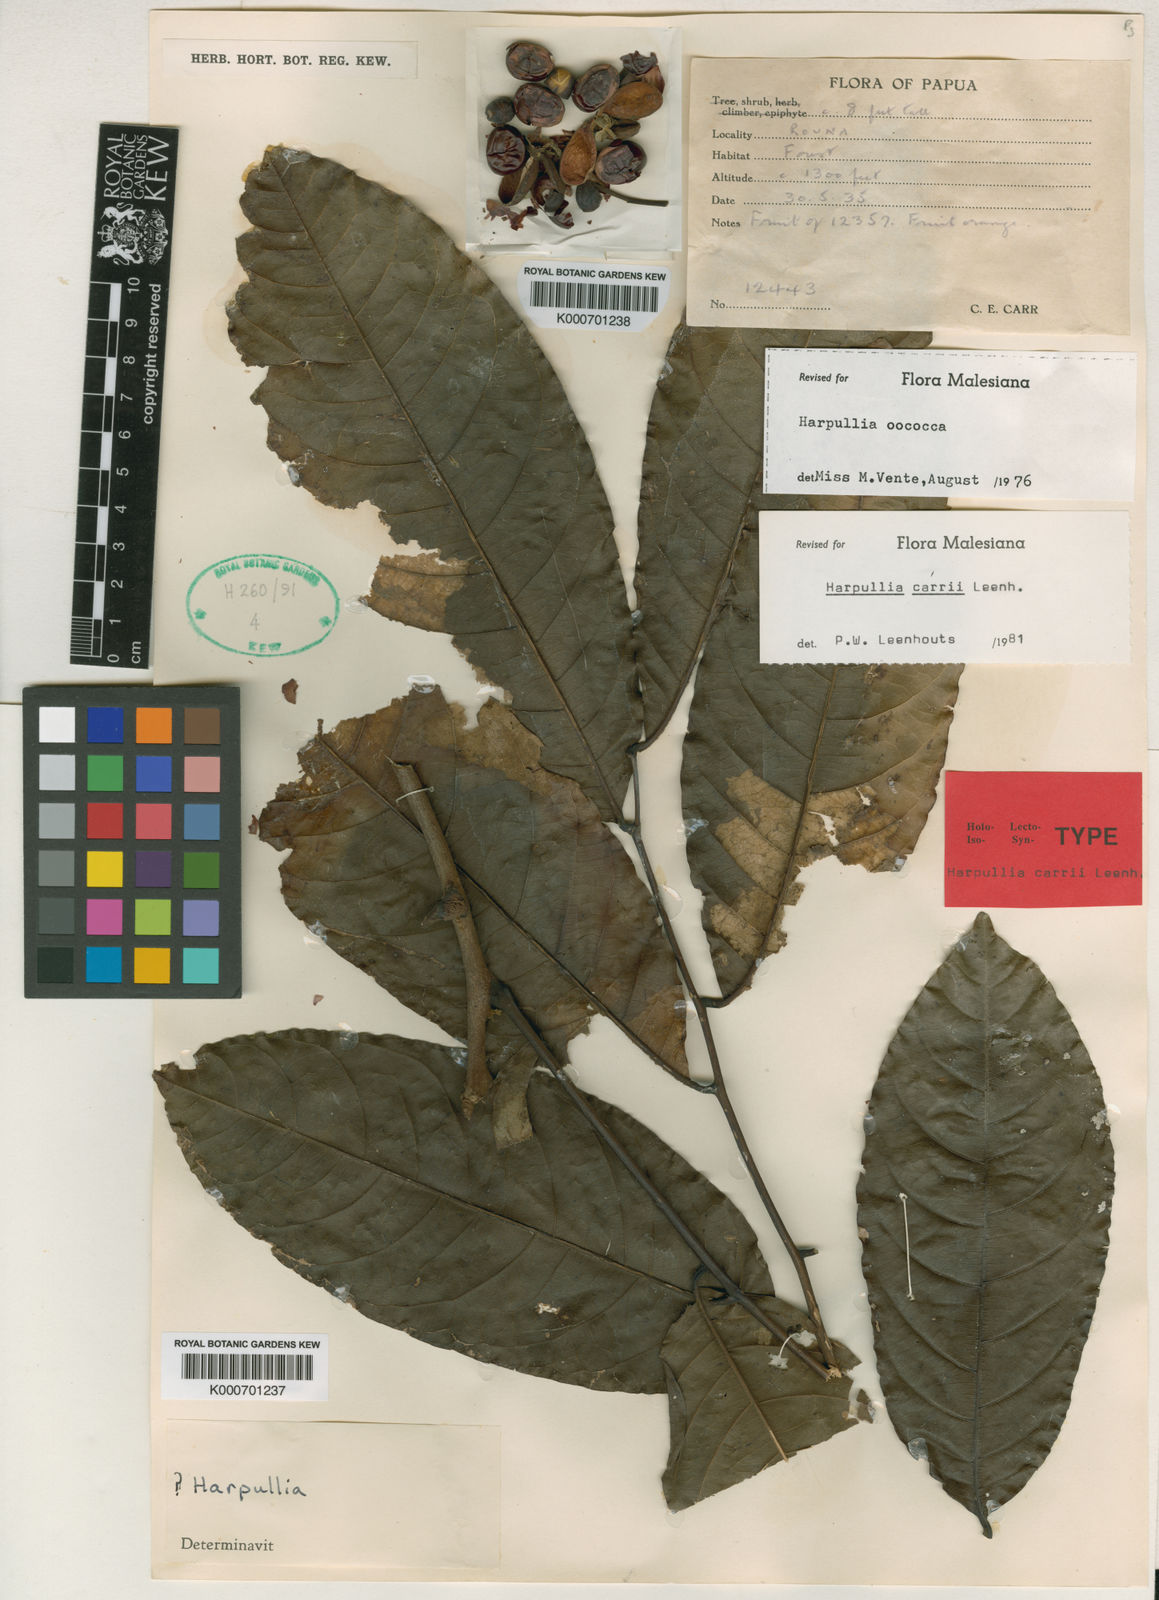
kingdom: Plantae
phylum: Tracheophyta
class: Magnoliopsida
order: Sapindales
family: Sapindaceae
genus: Harpullia
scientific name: Harpullia carrii
